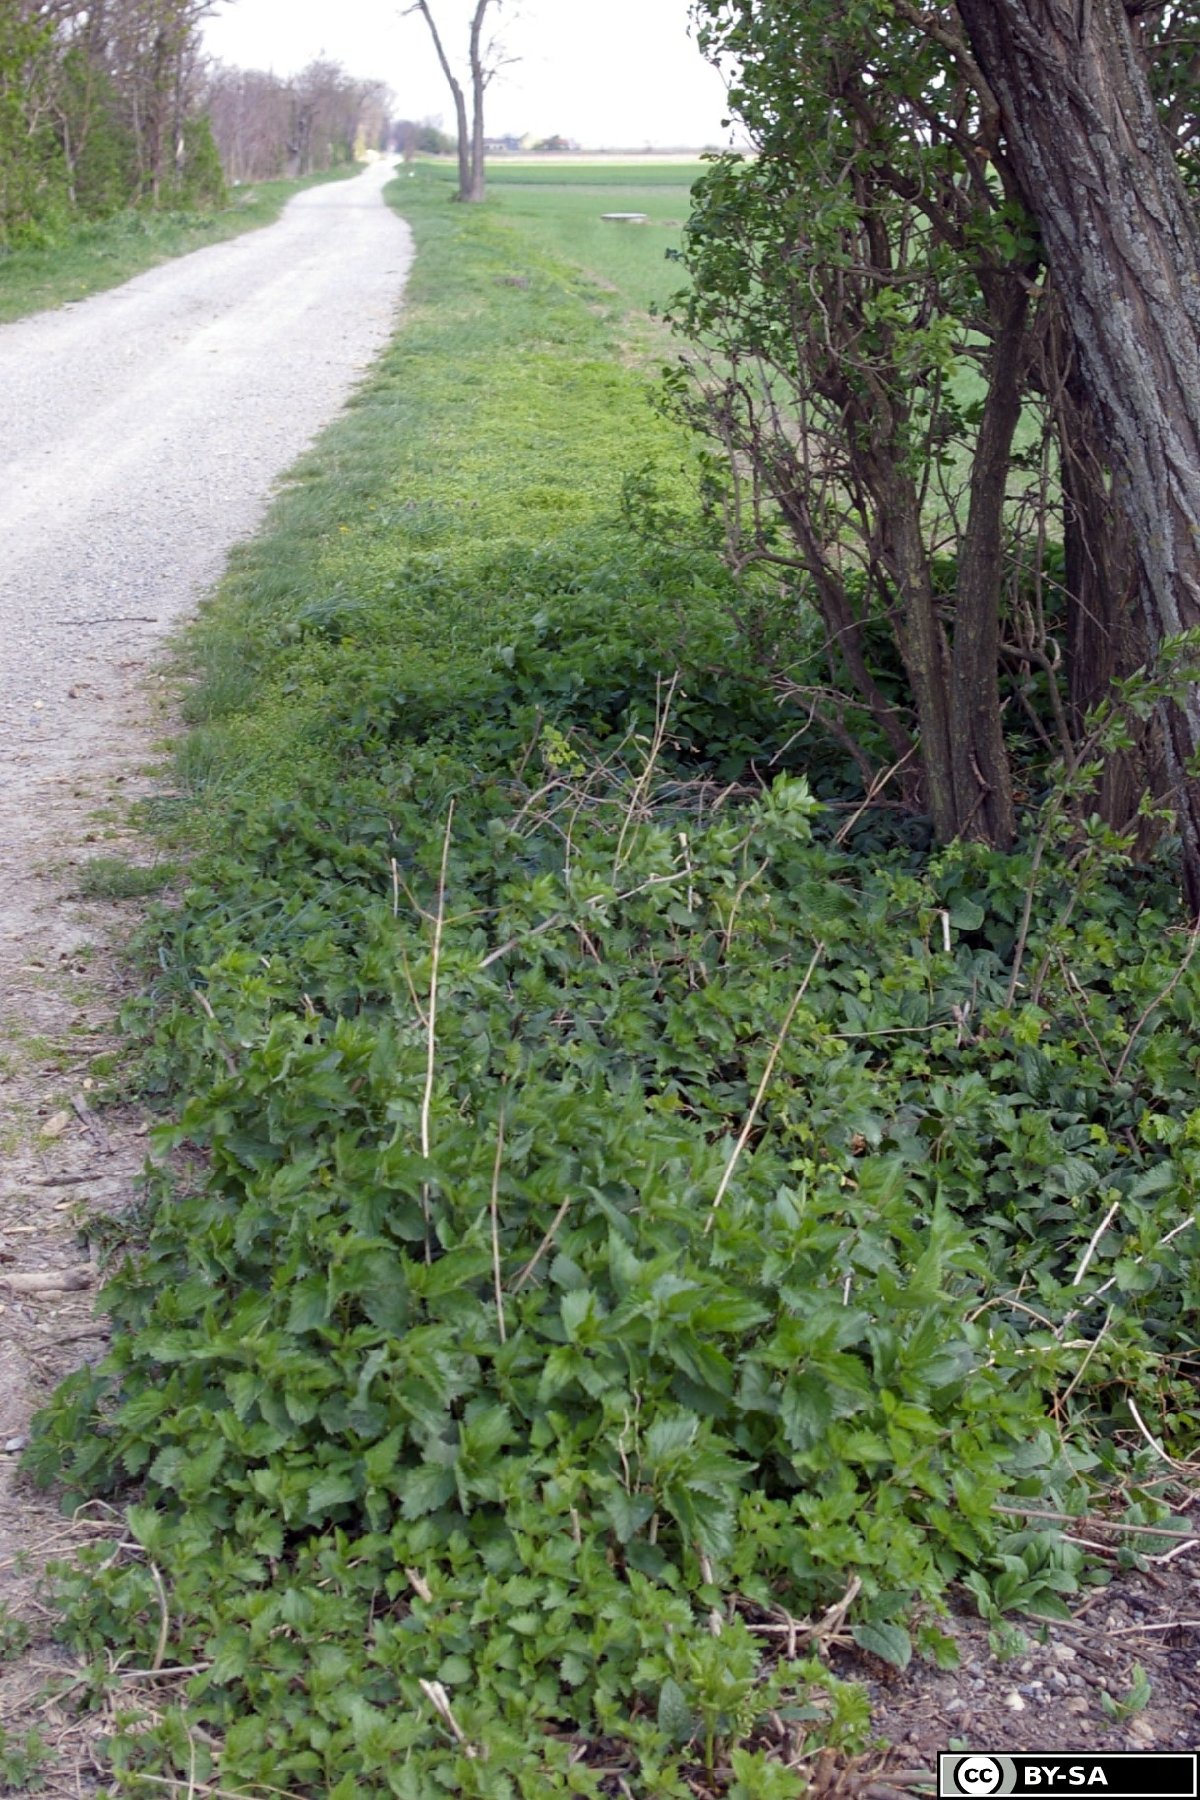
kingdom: Plantae
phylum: Tracheophyta
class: Magnoliopsida
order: Boraginales
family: Boraginaceae
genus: Symphytum
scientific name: Symphytum bulbosum
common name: Bulbous comfrey
